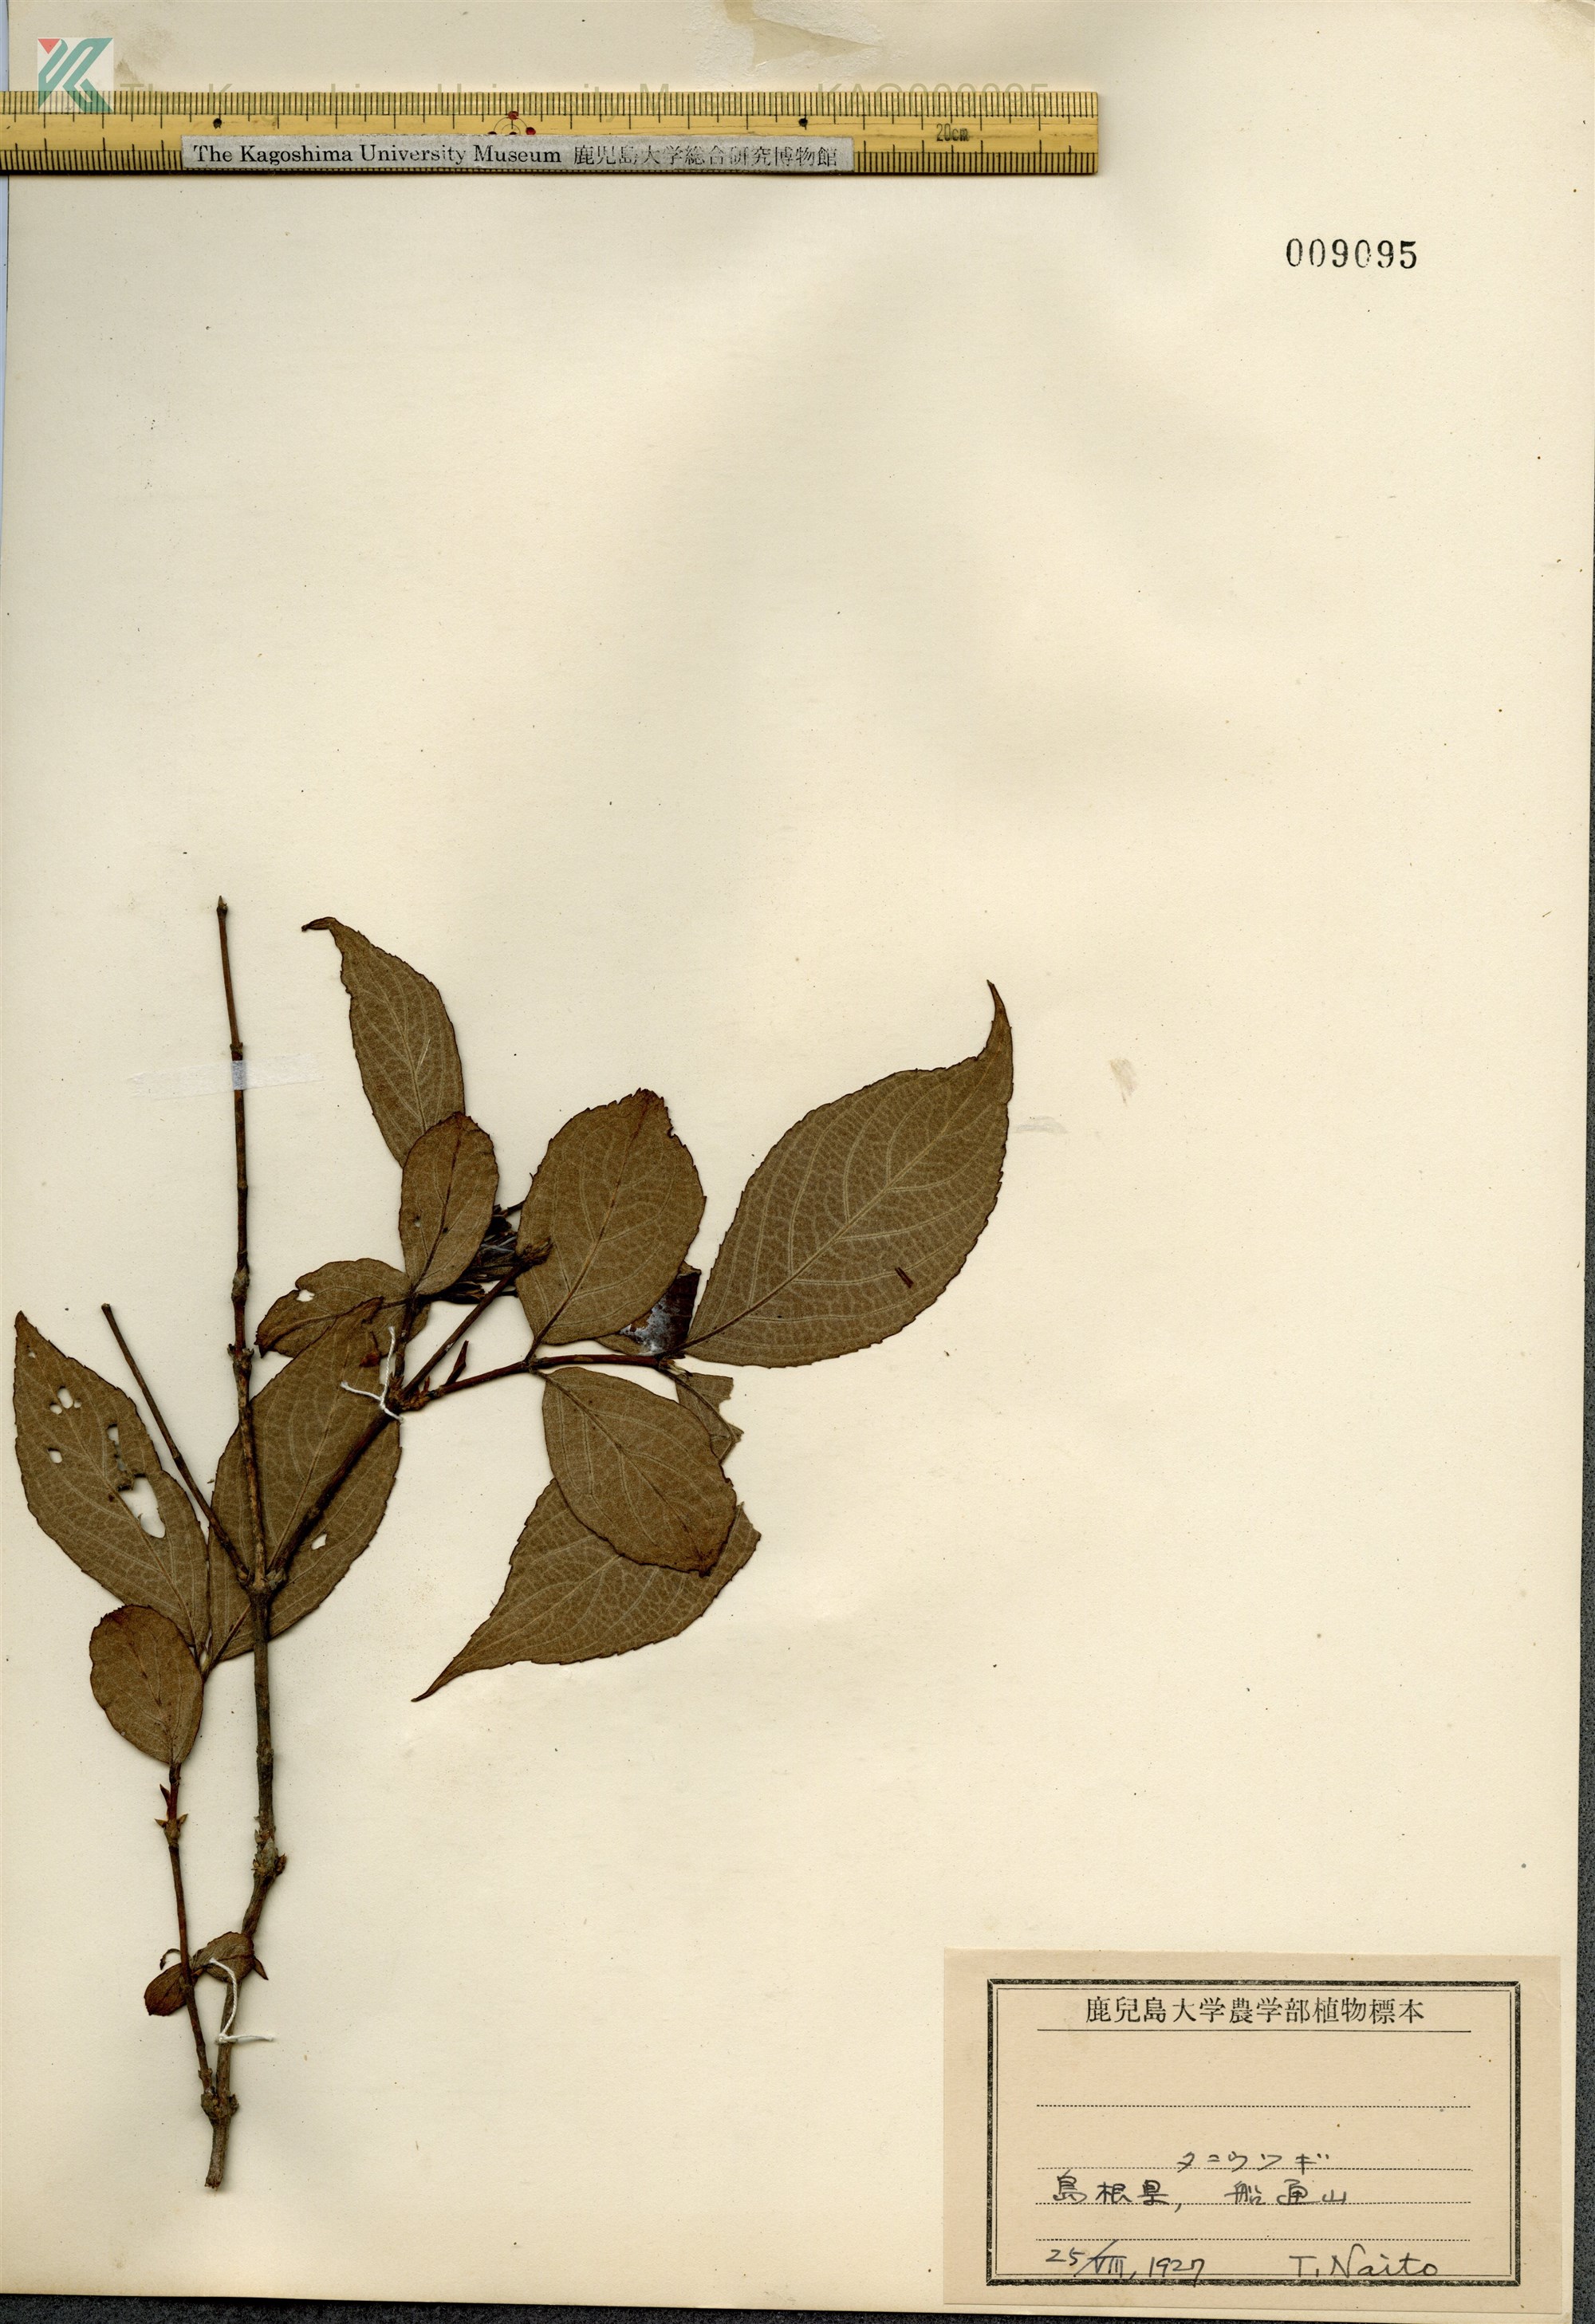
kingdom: Plantae
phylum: Tracheophyta
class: Magnoliopsida
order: Dipsacales
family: Caprifoliaceae
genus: Weigela
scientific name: Weigela hortensis
